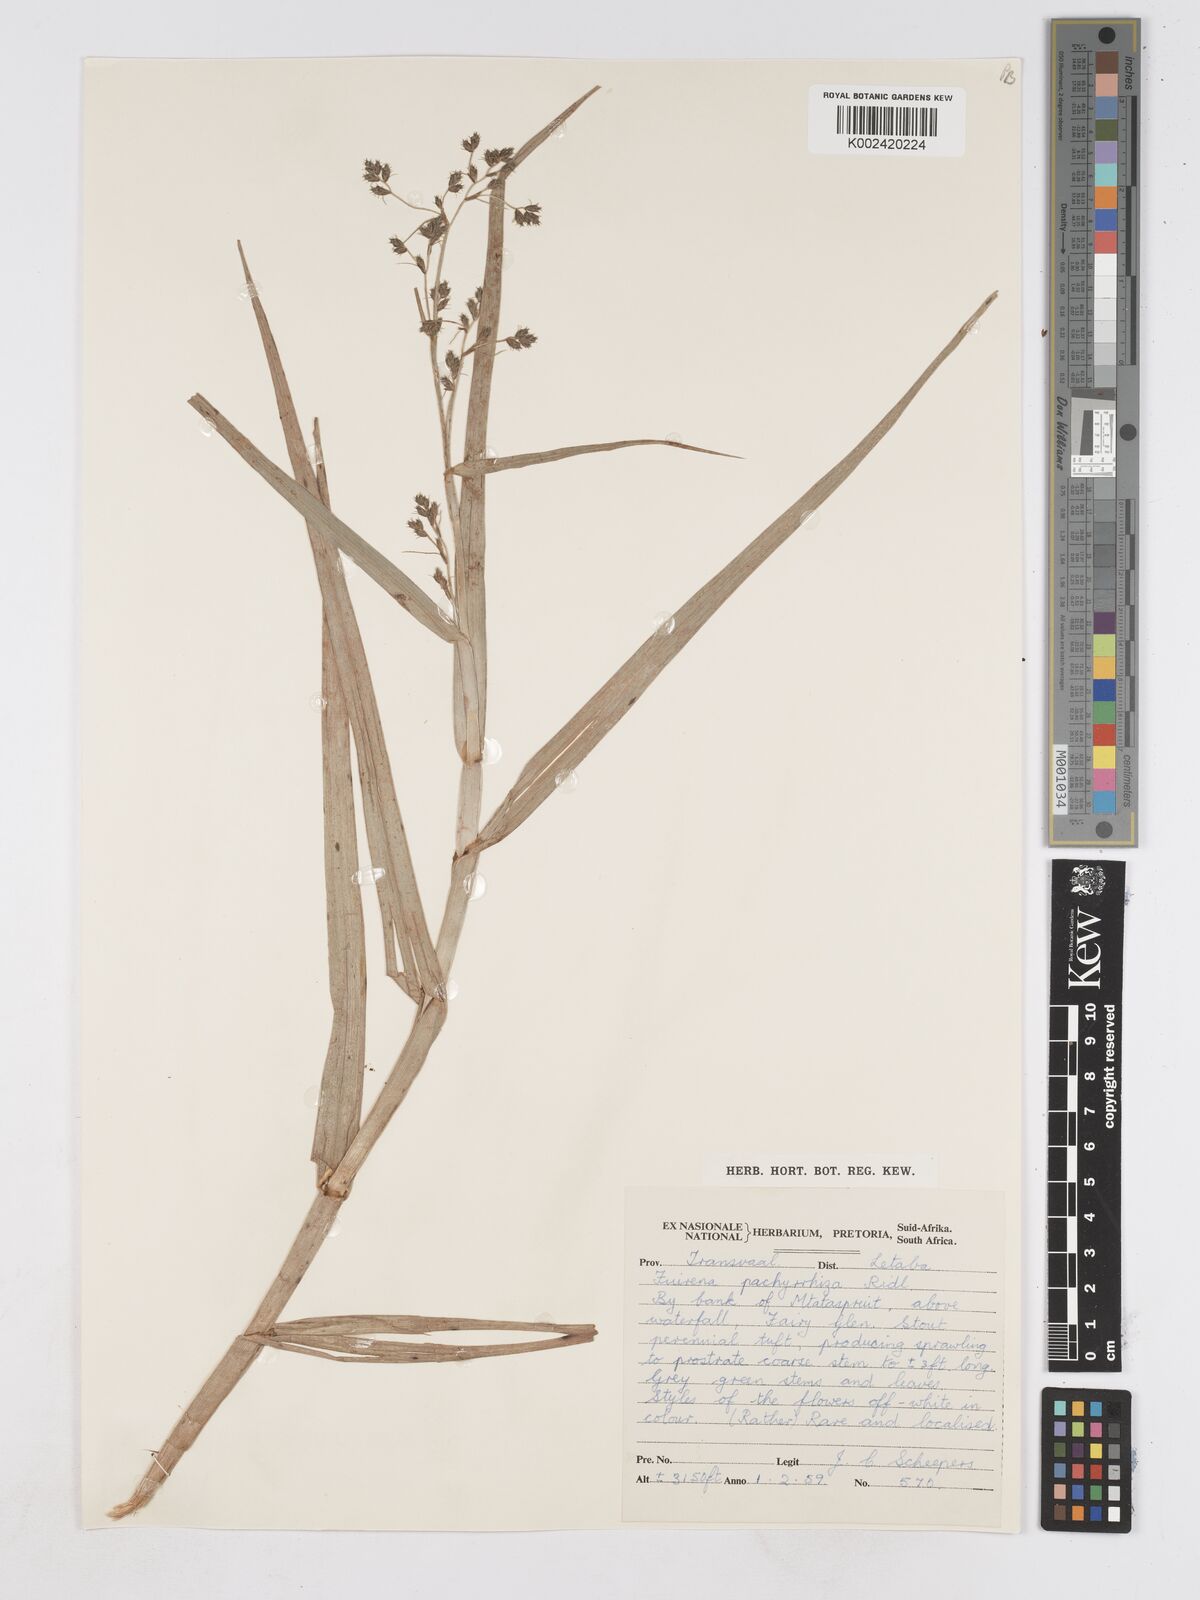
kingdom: Plantae
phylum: Tracheophyta
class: Liliopsida
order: Poales
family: Cyperaceae
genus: Fuirena
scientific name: Fuirena pachyrrhiza
